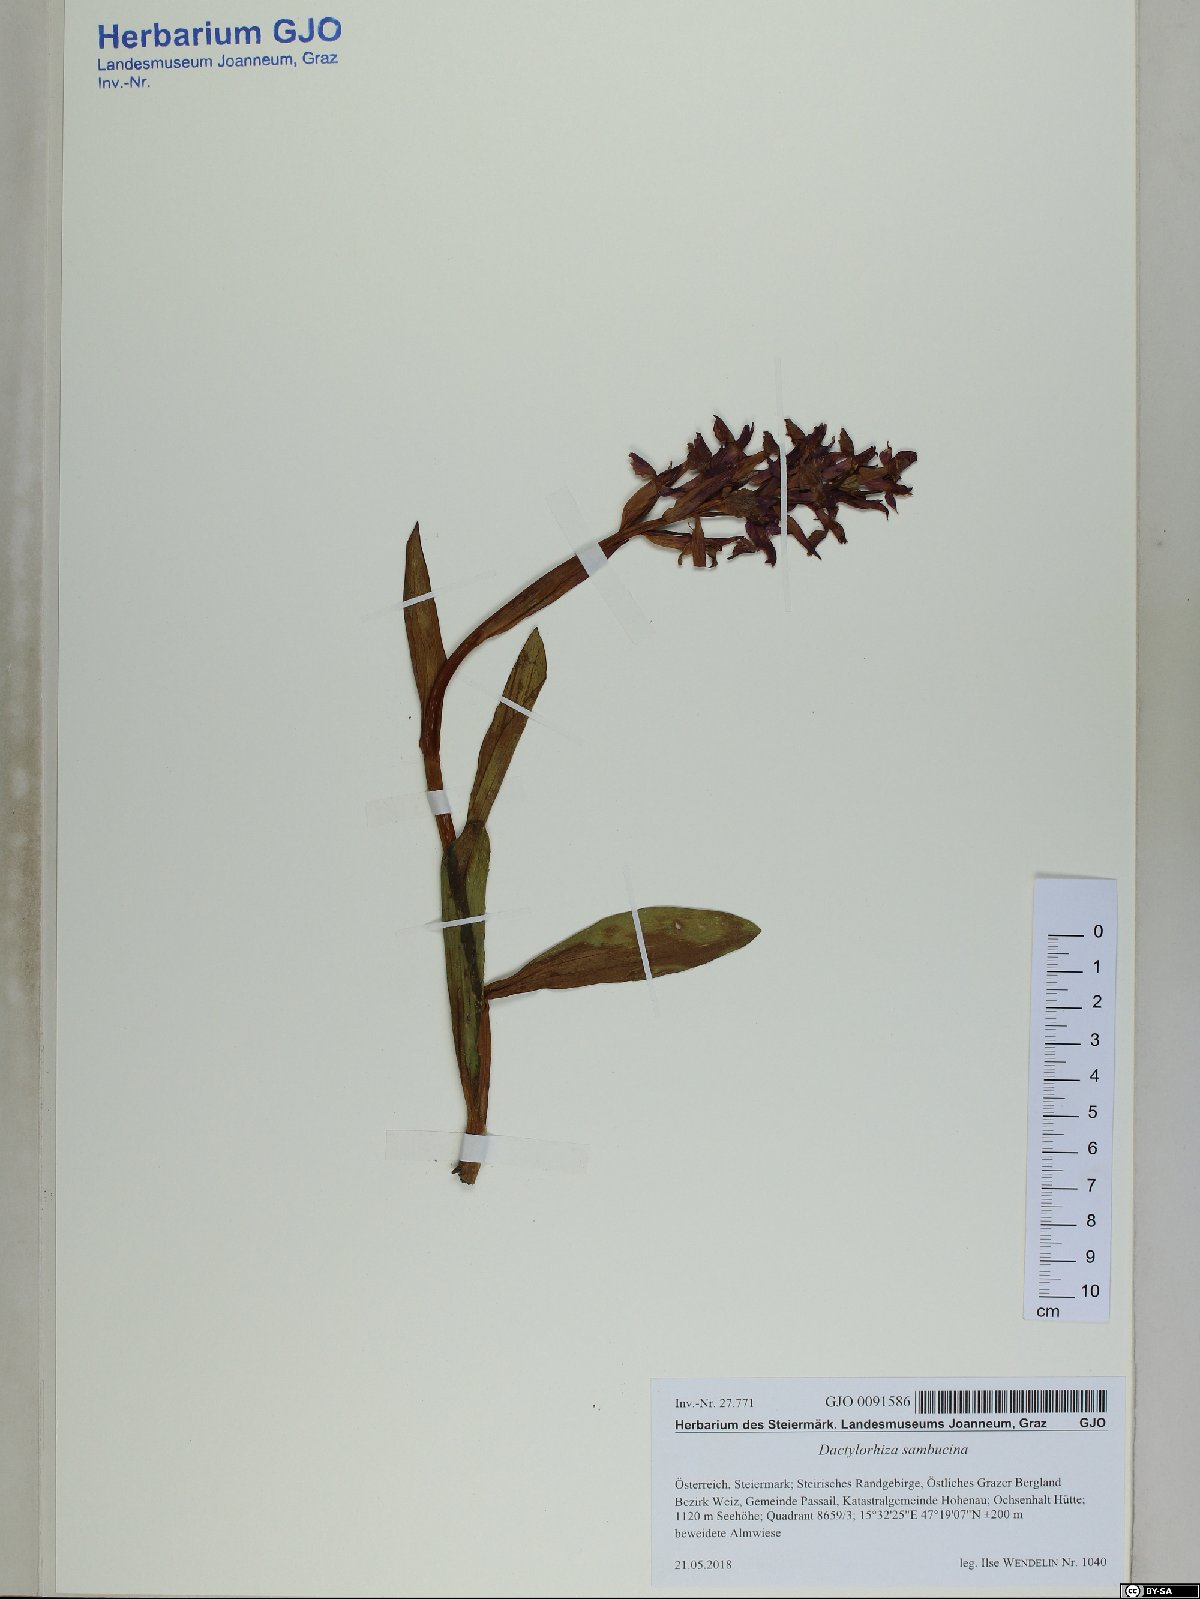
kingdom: Plantae
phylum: Tracheophyta
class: Liliopsida
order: Asparagales
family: Orchidaceae
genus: Dactylorhiza
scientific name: Dactylorhiza sambucina
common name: Elder-flowered orchid
